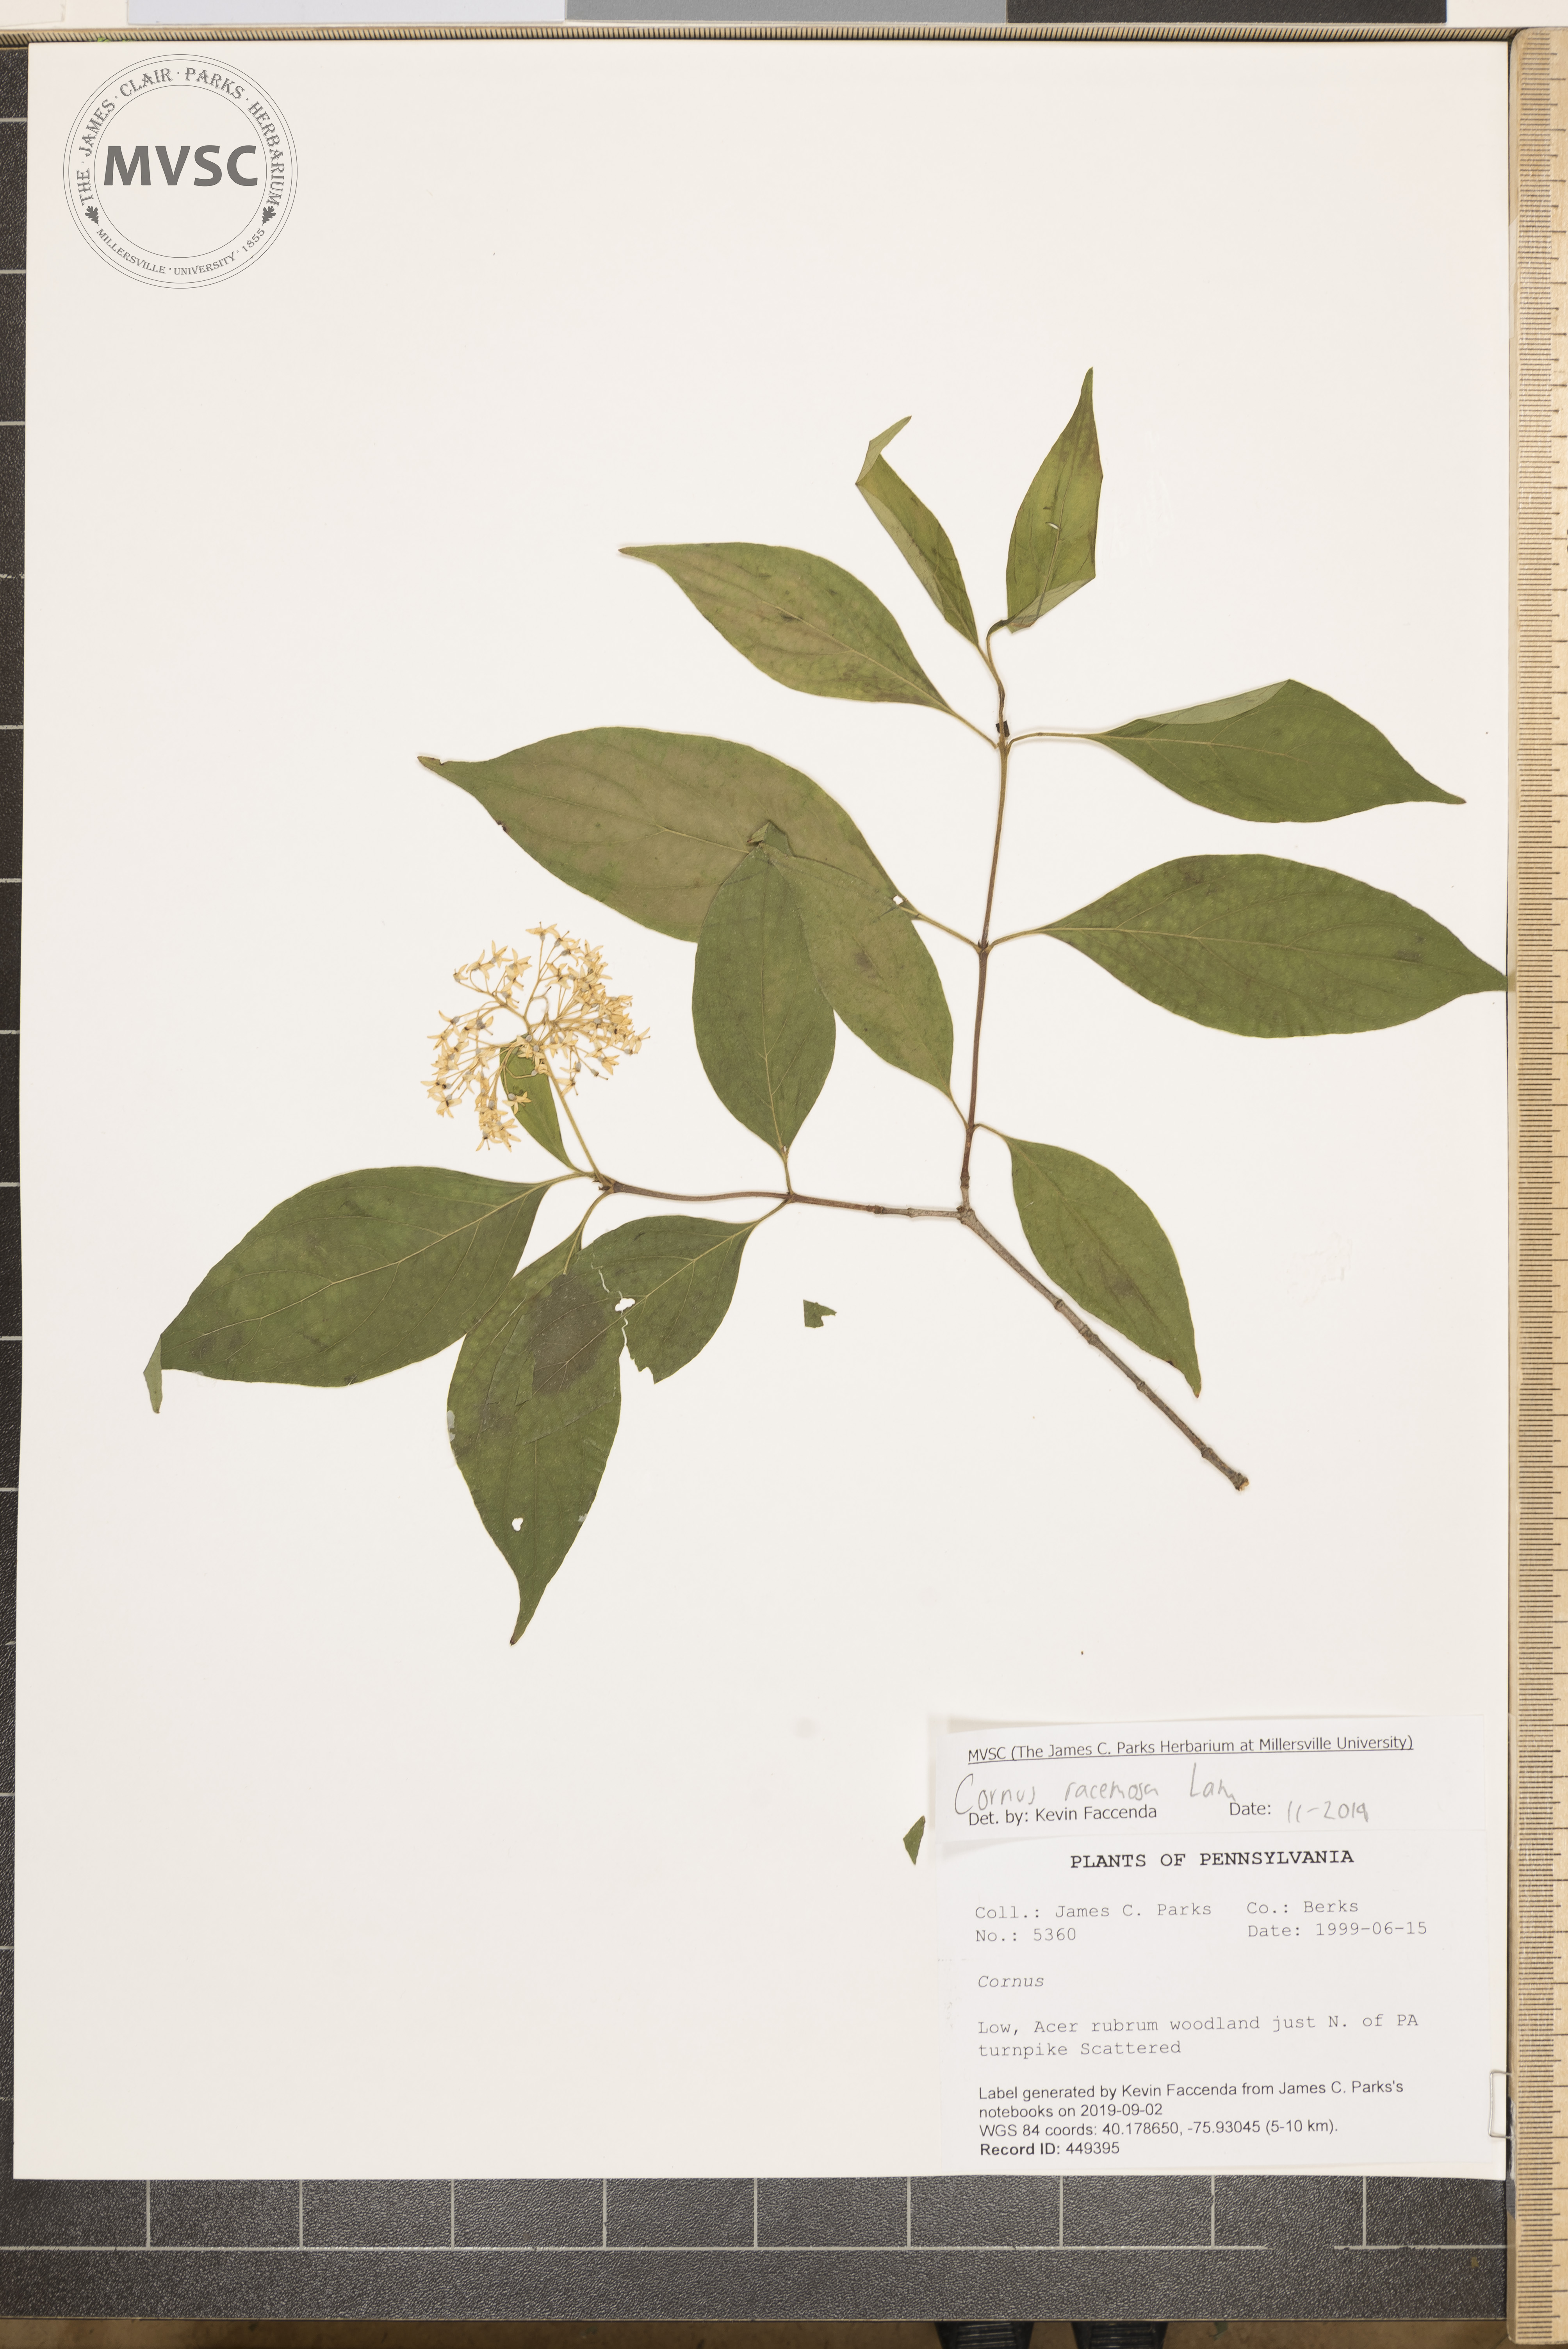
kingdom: Plantae
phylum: Tracheophyta
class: Magnoliopsida
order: Cornales
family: Cornaceae
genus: Cornus
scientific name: Cornus racemosa
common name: Panicled dogwood
